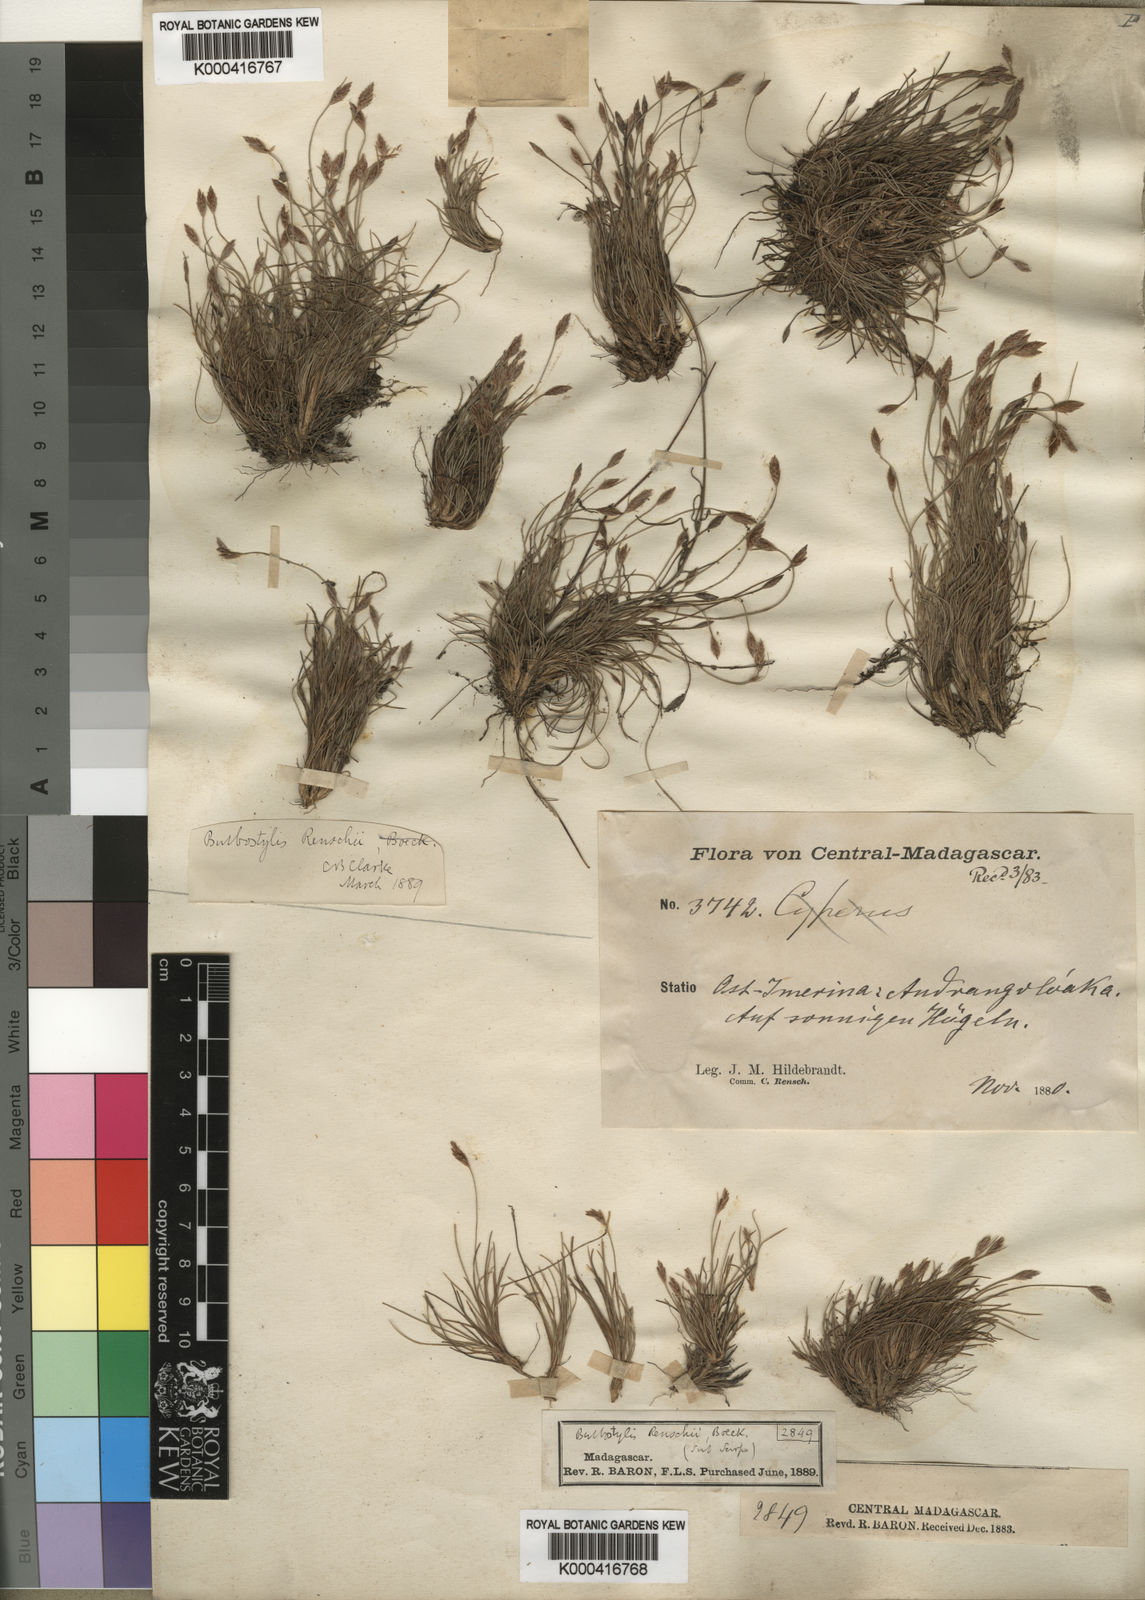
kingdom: Plantae
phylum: Tracheophyta
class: Liliopsida
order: Poales
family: Cyperaceae
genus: Bulbostylis
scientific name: Bulbostylis renschii
